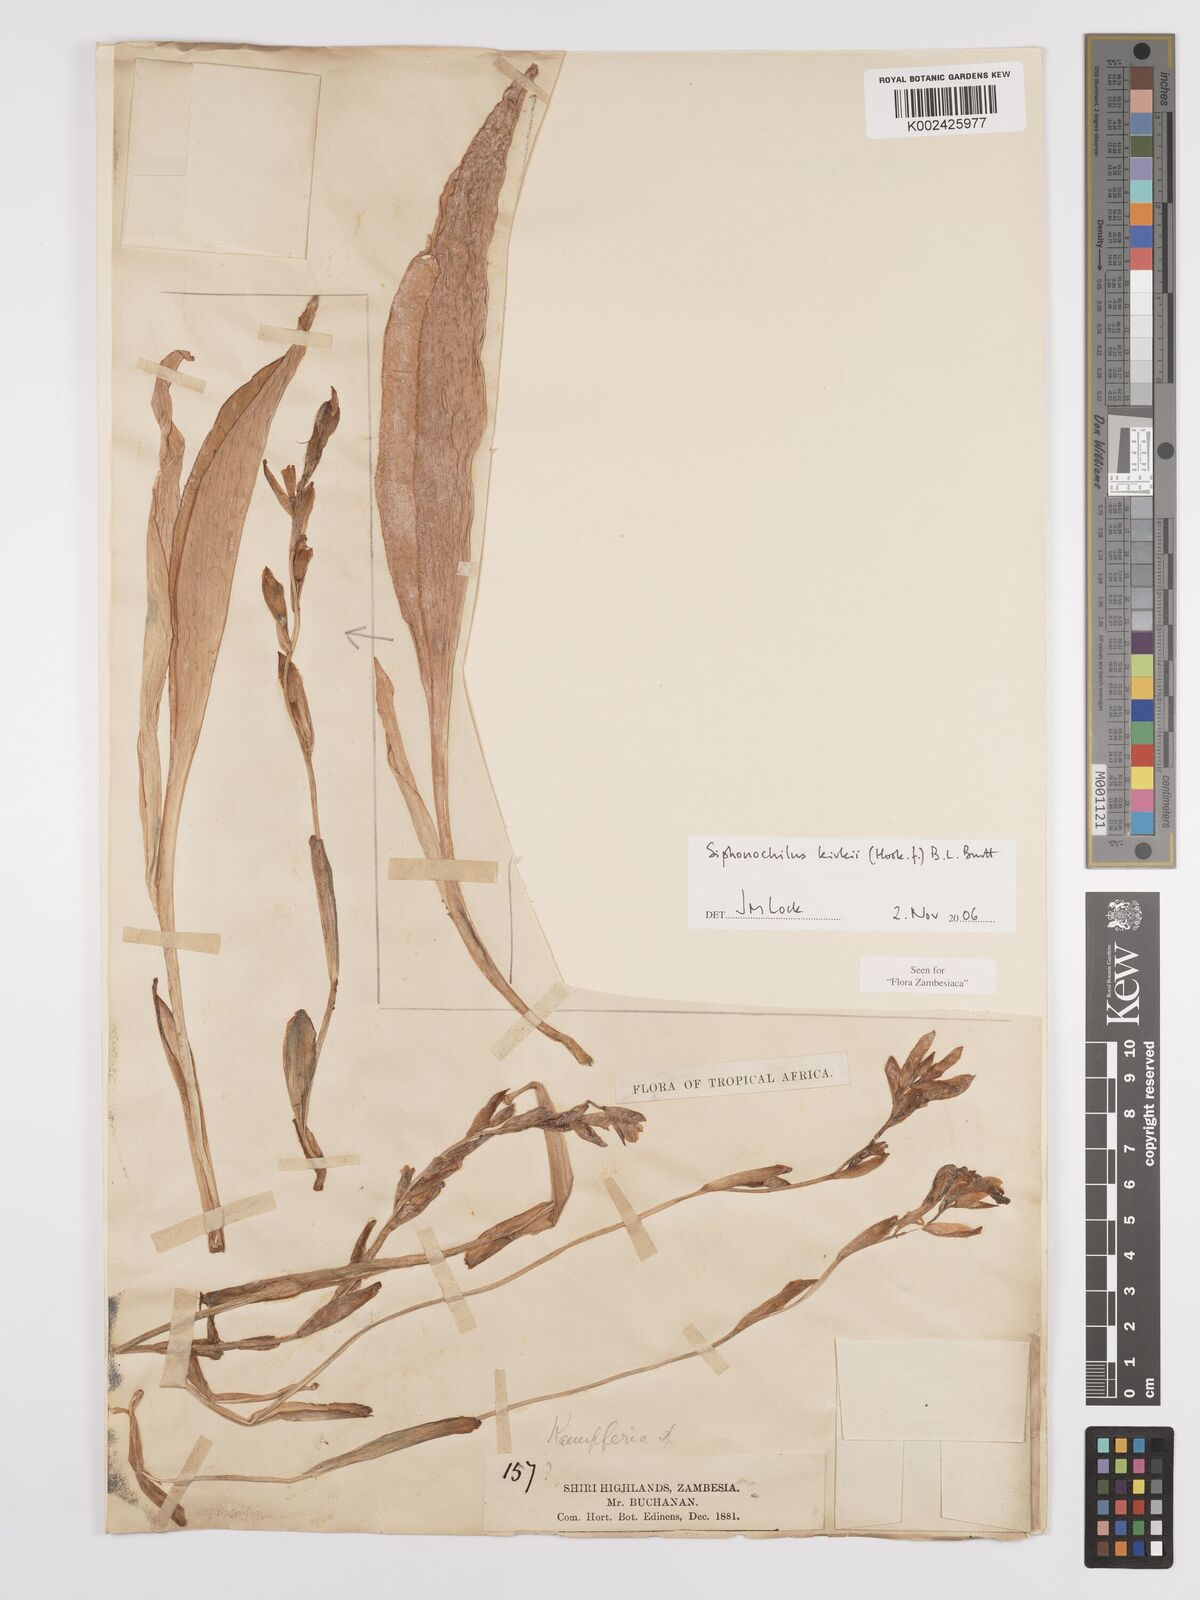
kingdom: Plantae
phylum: Tracheophyta
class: Liliopsida
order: Zingiberales
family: Zingiberaceae
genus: Siphonochilus
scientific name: Siphonochilus kirkii
